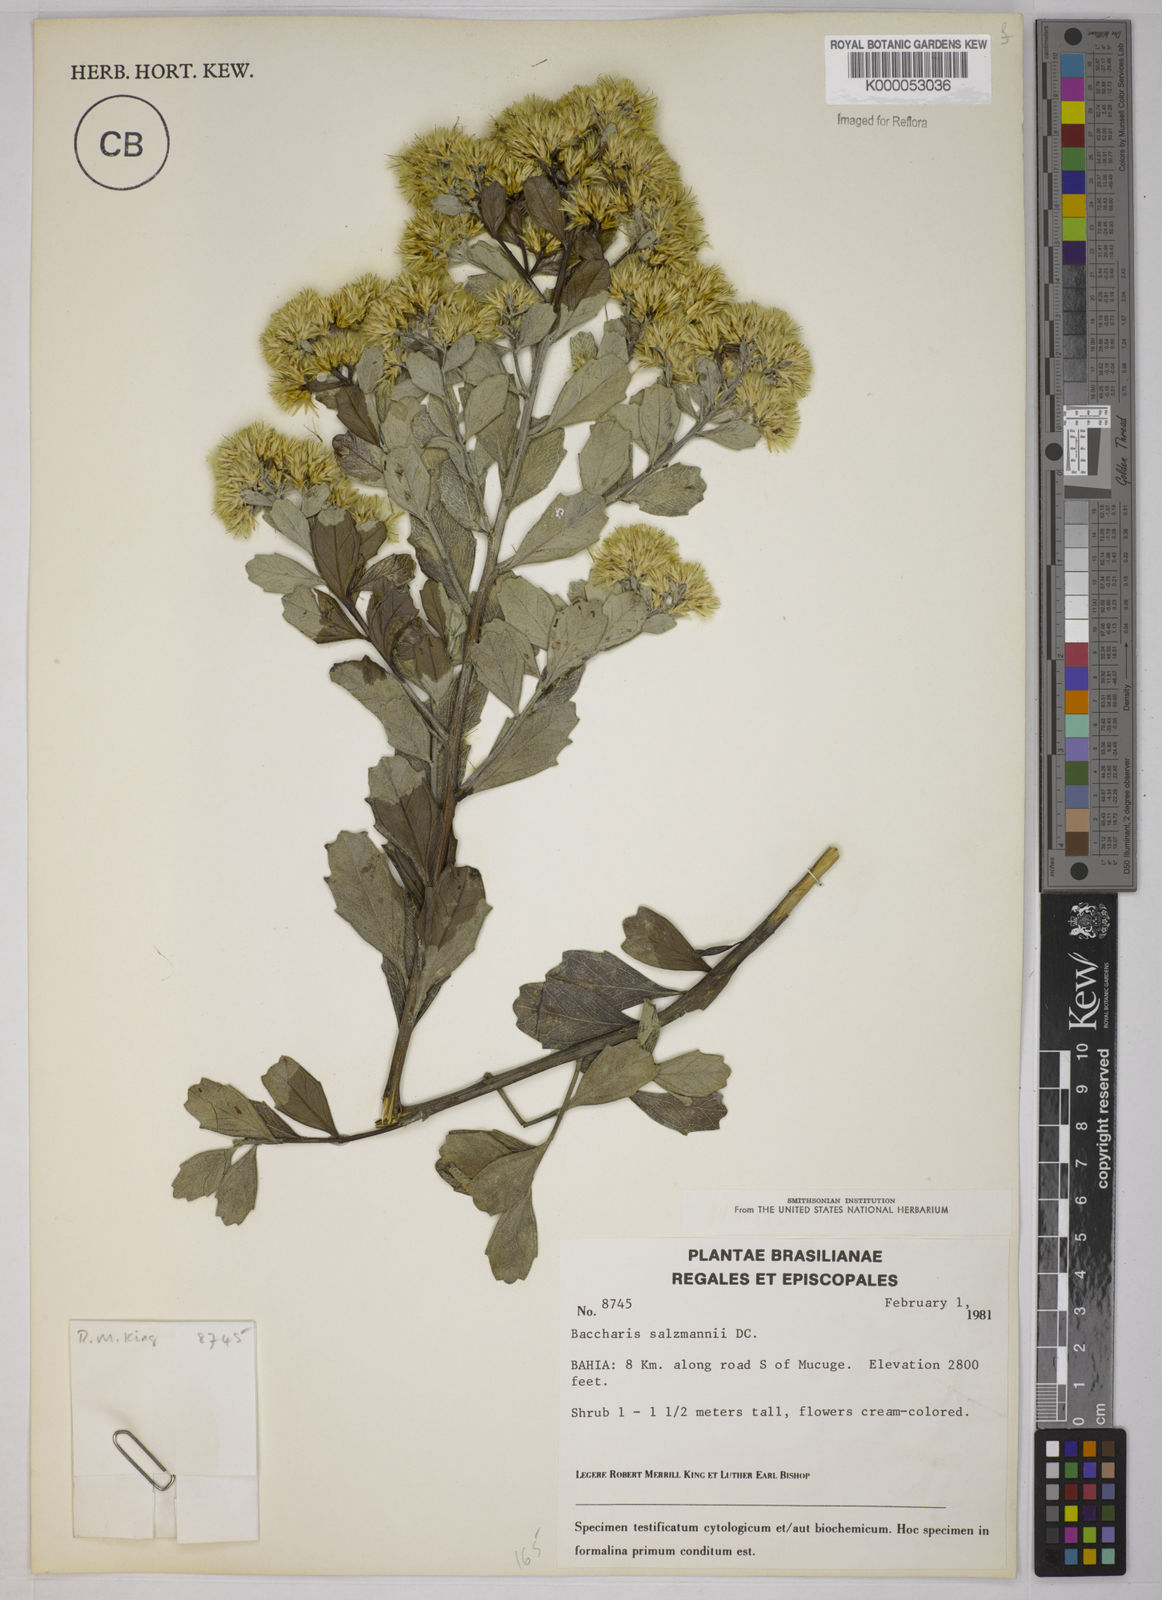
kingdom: Plantae
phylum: Tracheophyta
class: Magnoliopsida
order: Asterales
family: Asteraceae
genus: Baccharis
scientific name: Baccharis retusa
